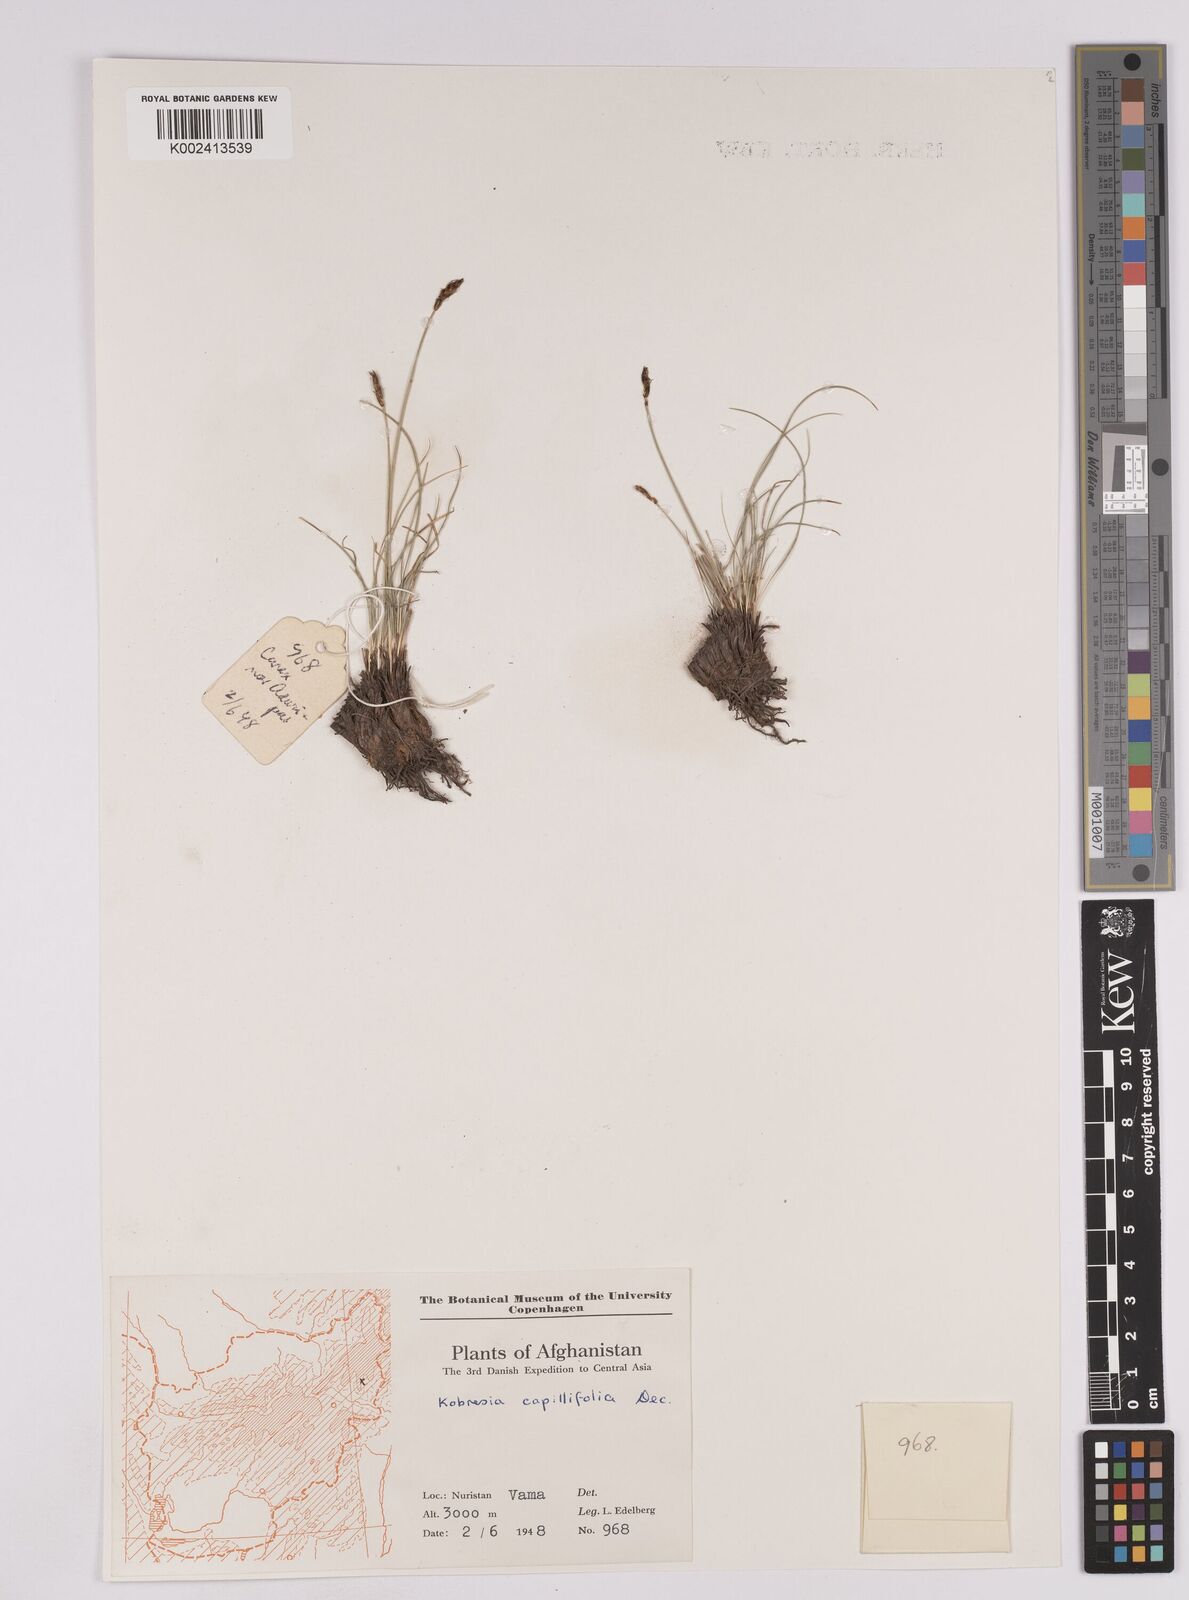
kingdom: Plantae
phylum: Tracheophyta
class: Liliopsida
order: Poales
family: Cyperaceae
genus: Carex
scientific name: Carex capillifolia
